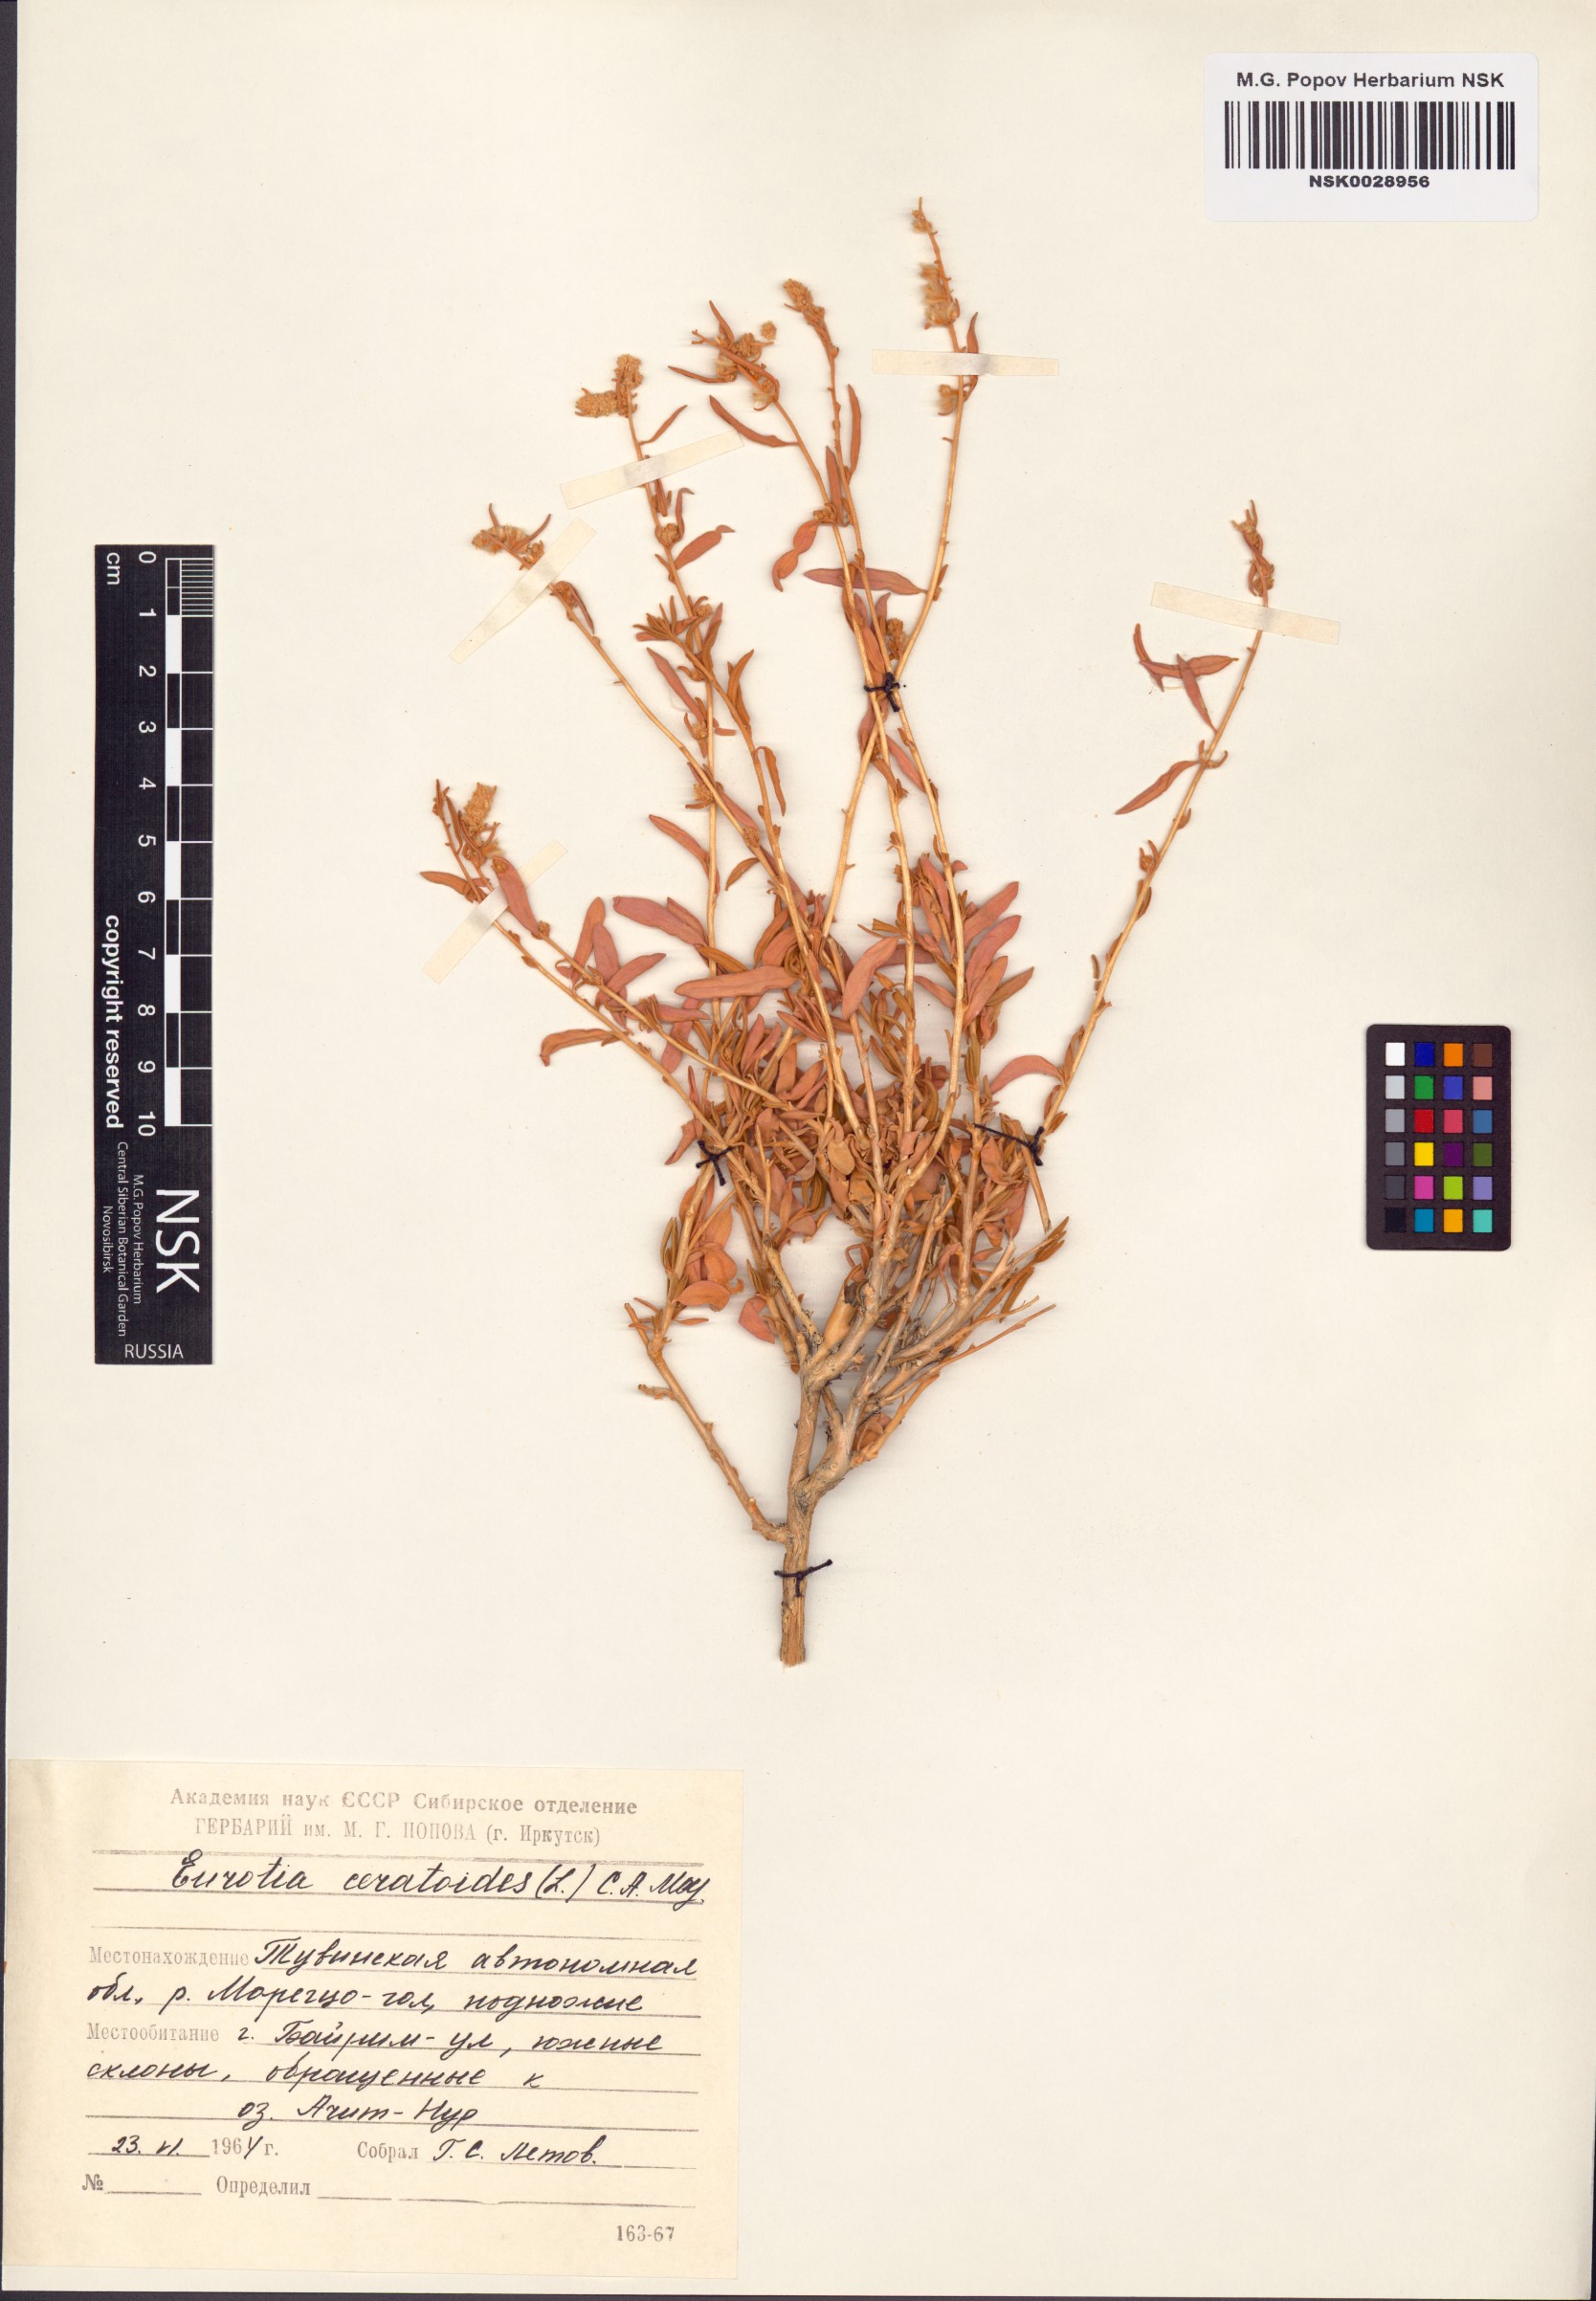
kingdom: Plantae
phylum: Tracheophyta
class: Magnoliopsida
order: Caryophyllales
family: Amaranthaceae
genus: Krascheninnikovia
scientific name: Krascheninnikovia ceratoides
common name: Pamirian winterfat
